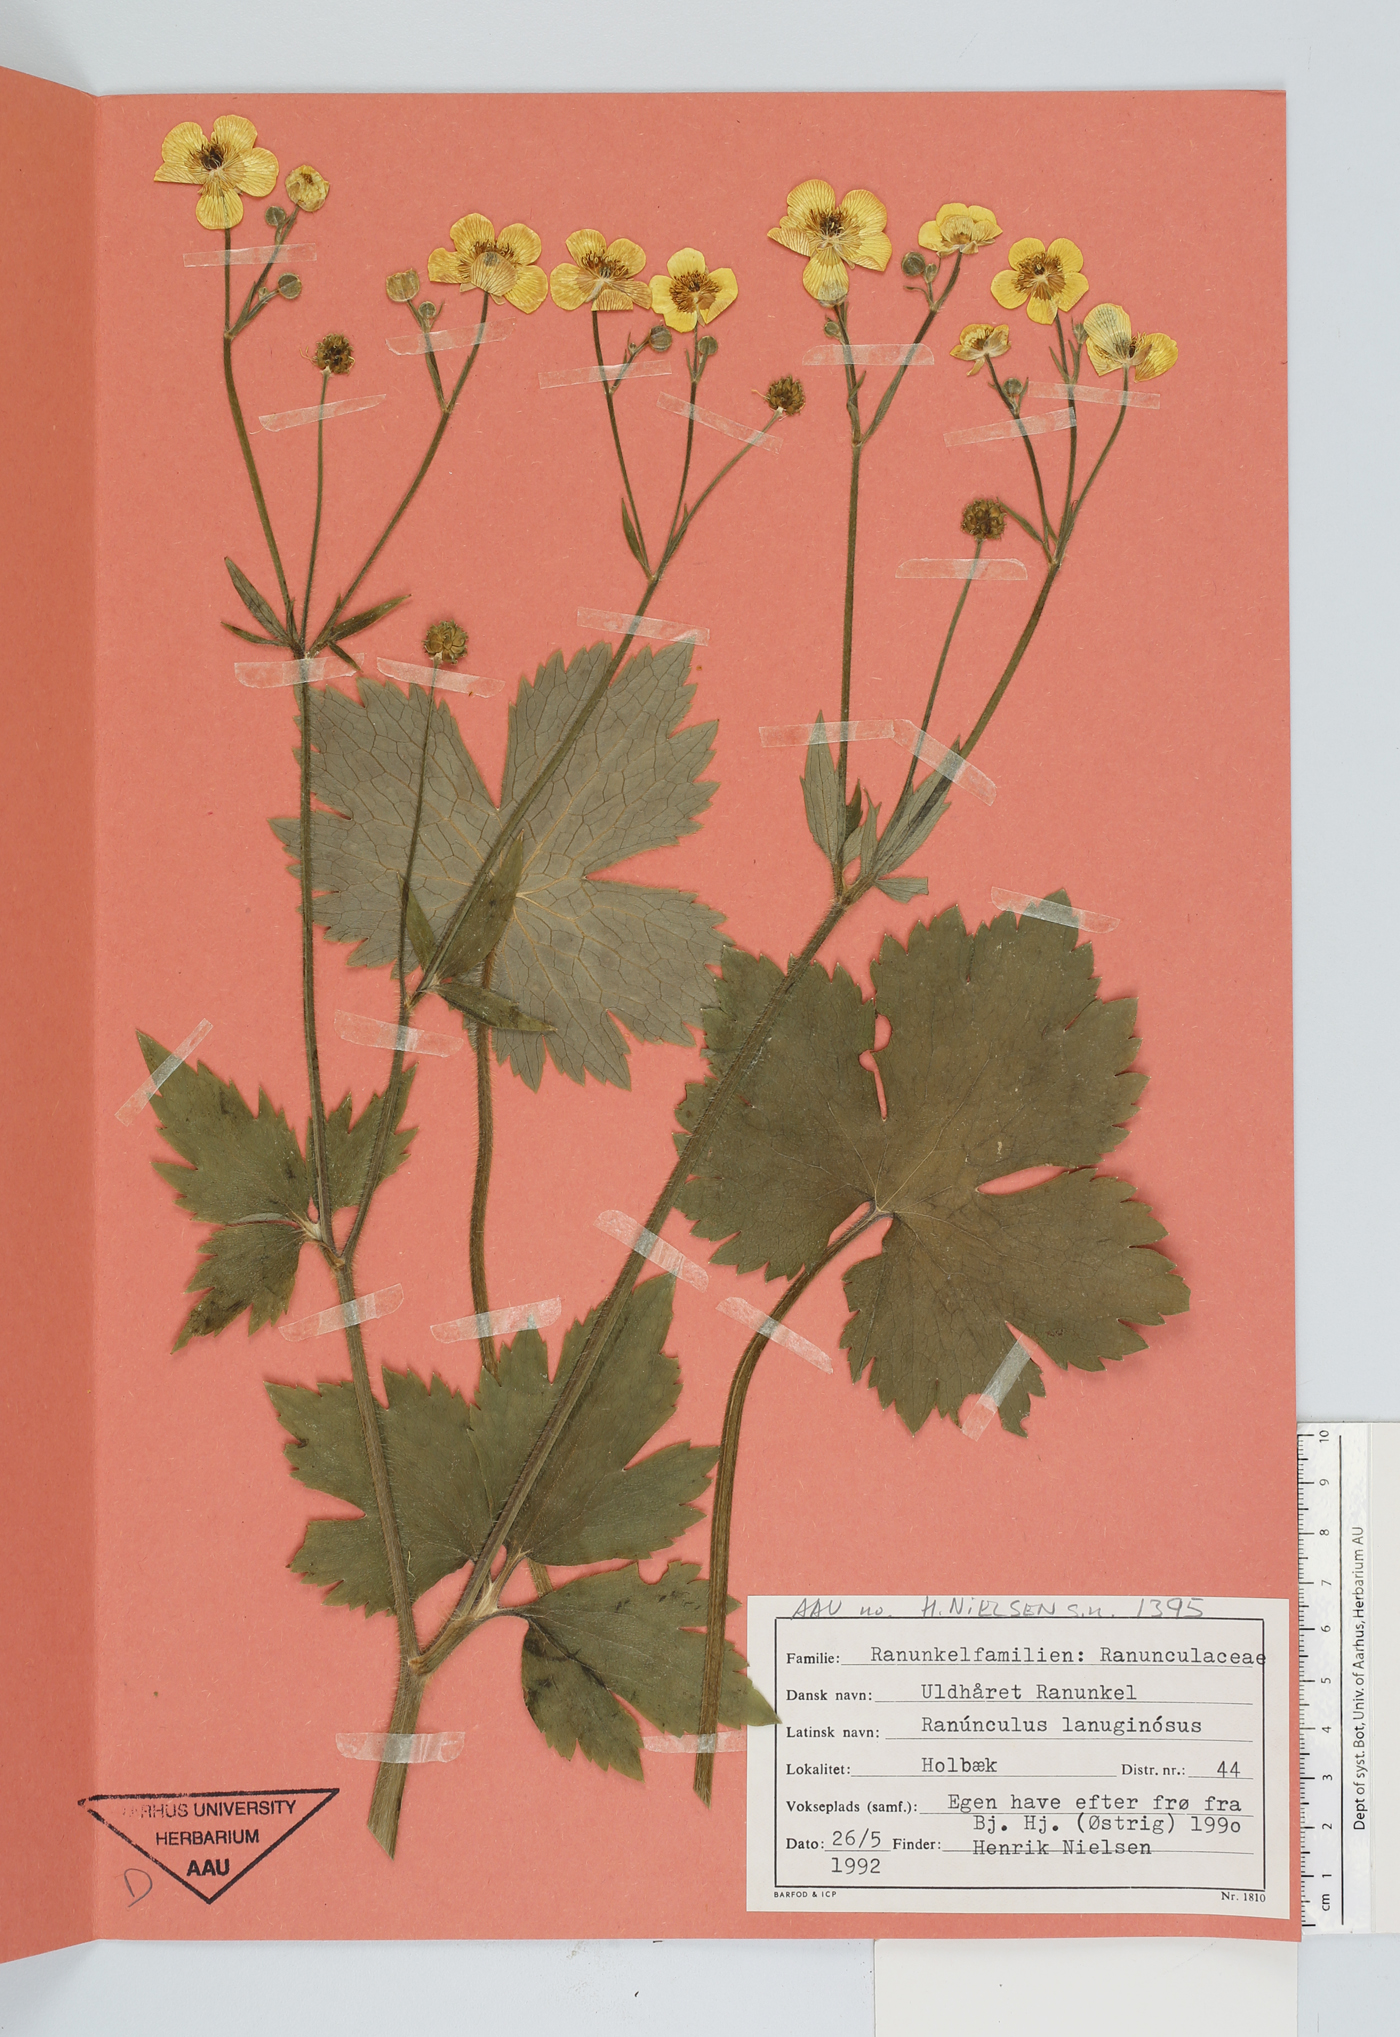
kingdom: Plantae
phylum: Tracheophyta
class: Magnoliopsida
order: Ranunculales
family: Ranunculaceae
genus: Ranunculus
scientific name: Ranunculus lanuginosus
